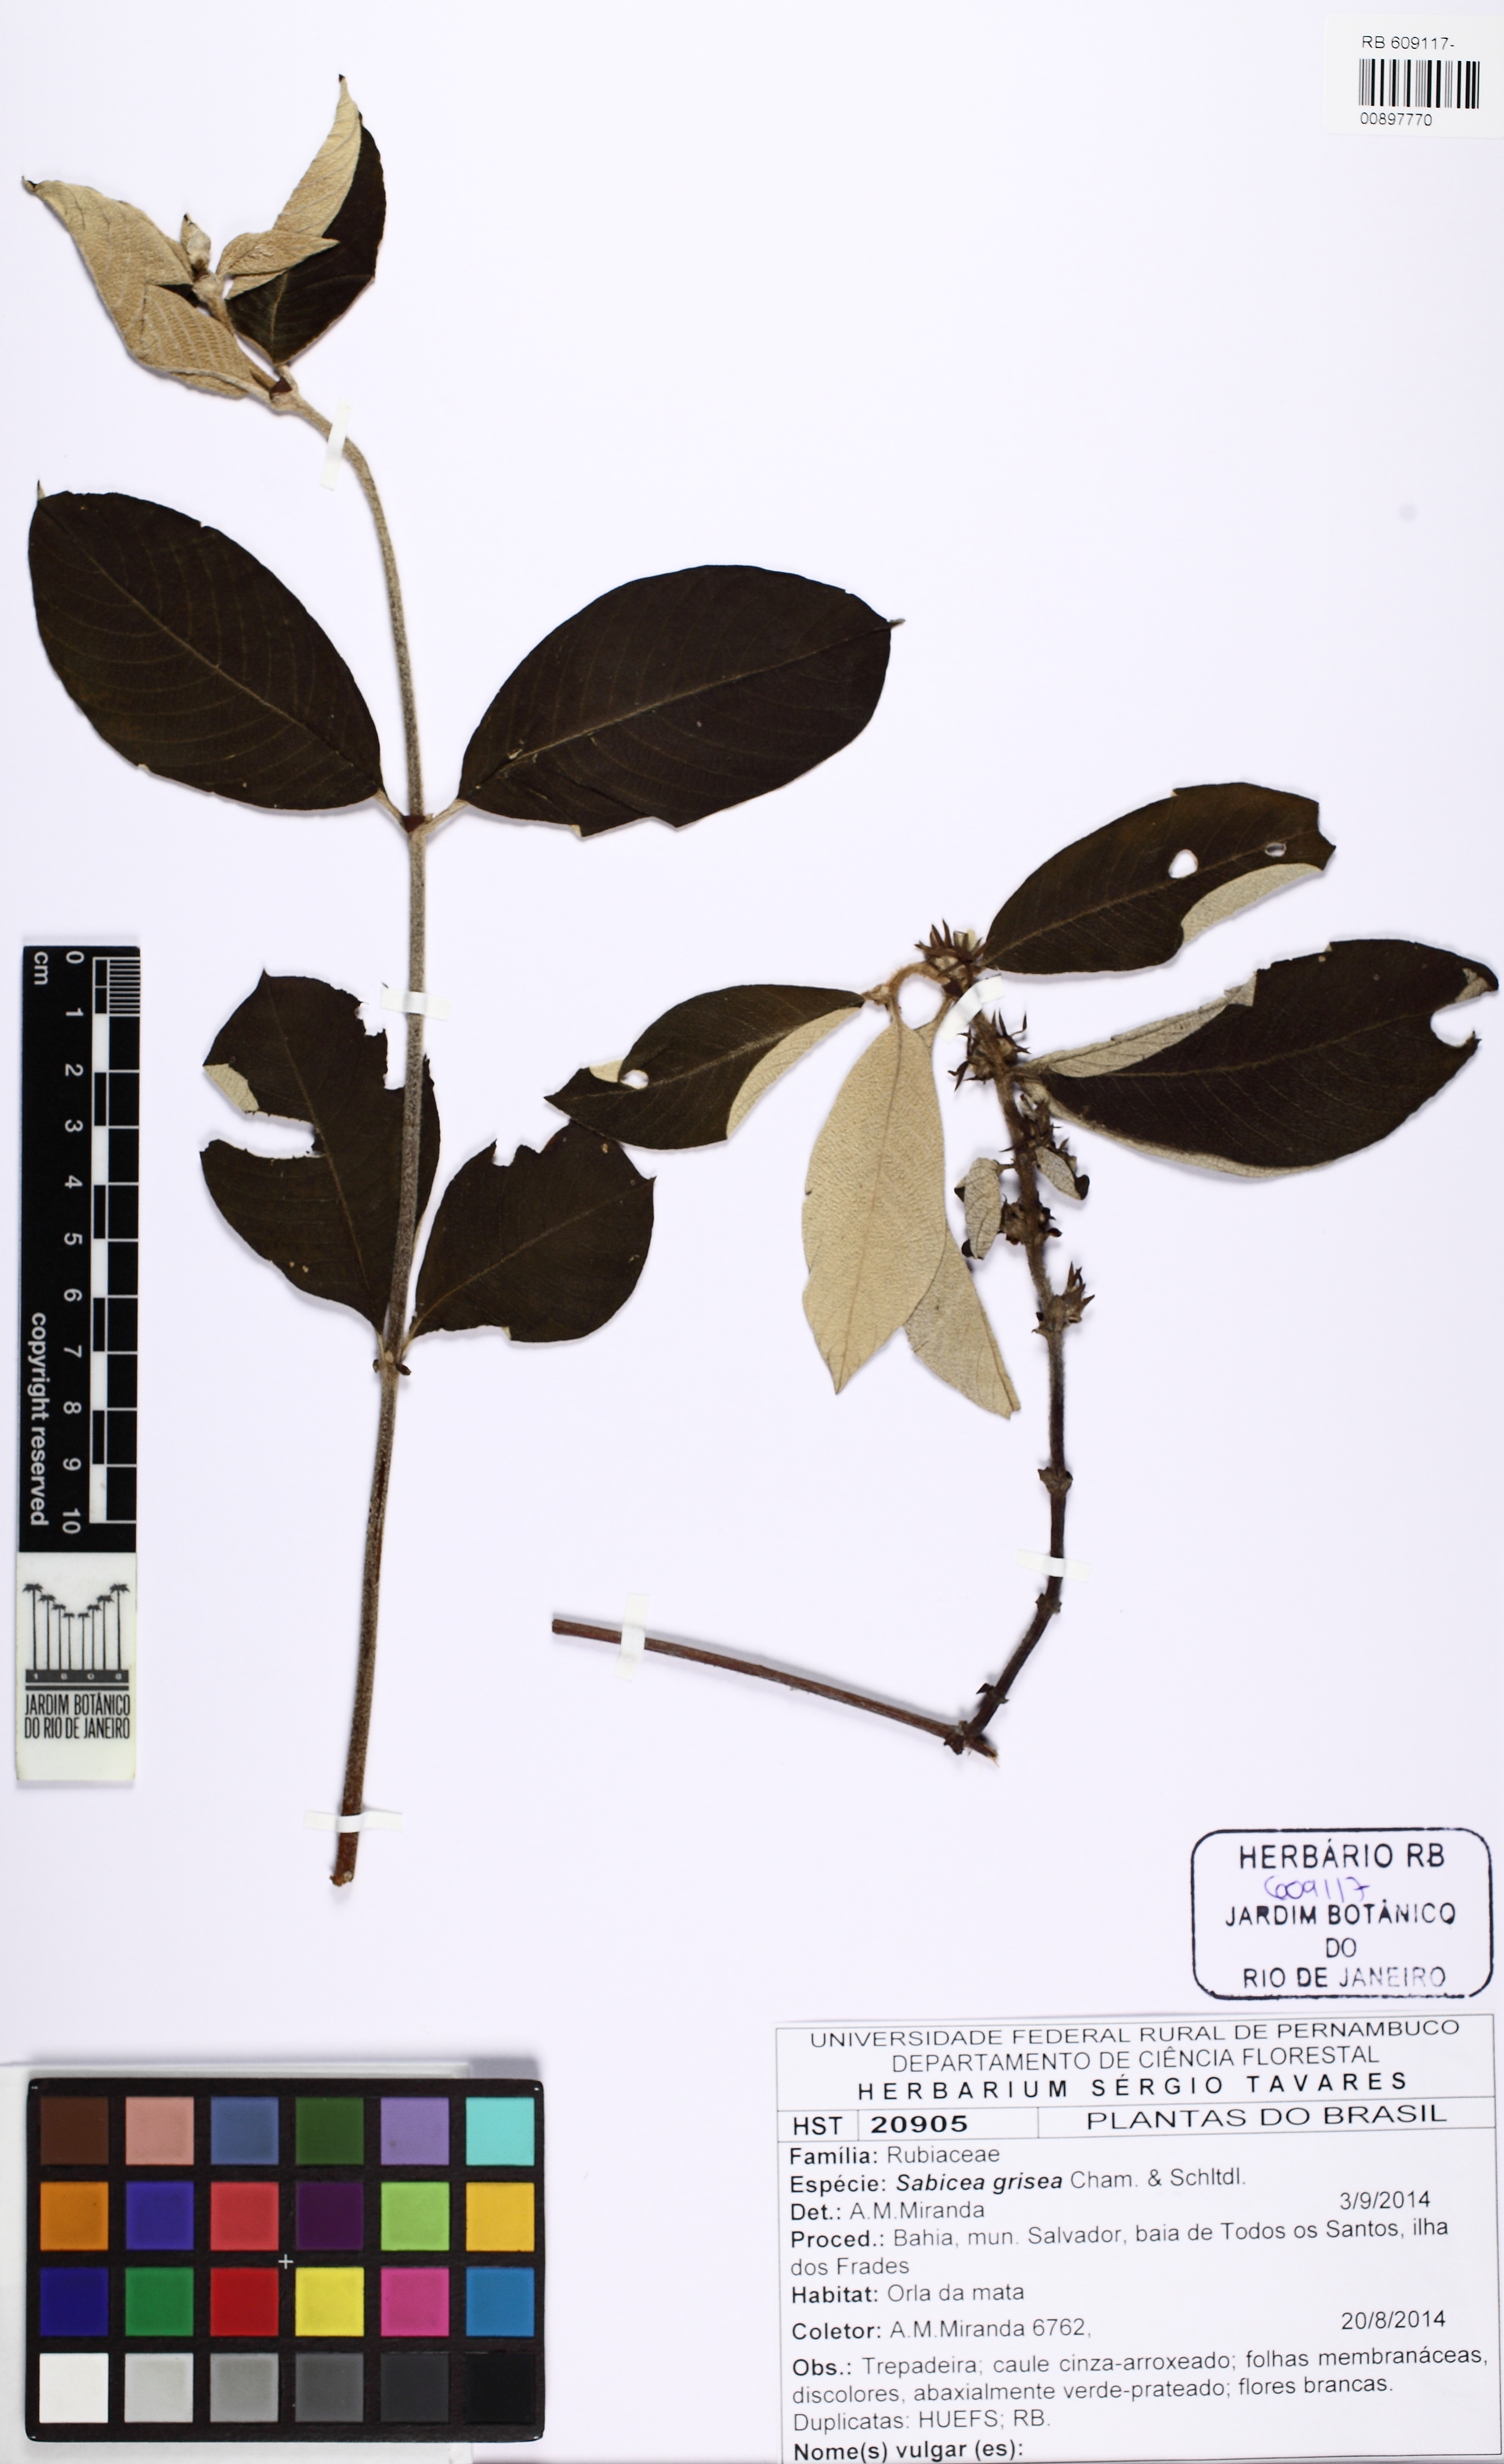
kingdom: Plantae
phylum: Tracheophyta
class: Magnoliopsida
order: Gentianales
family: Rubiaceae
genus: Sabicea
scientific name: Sabicea grisea
